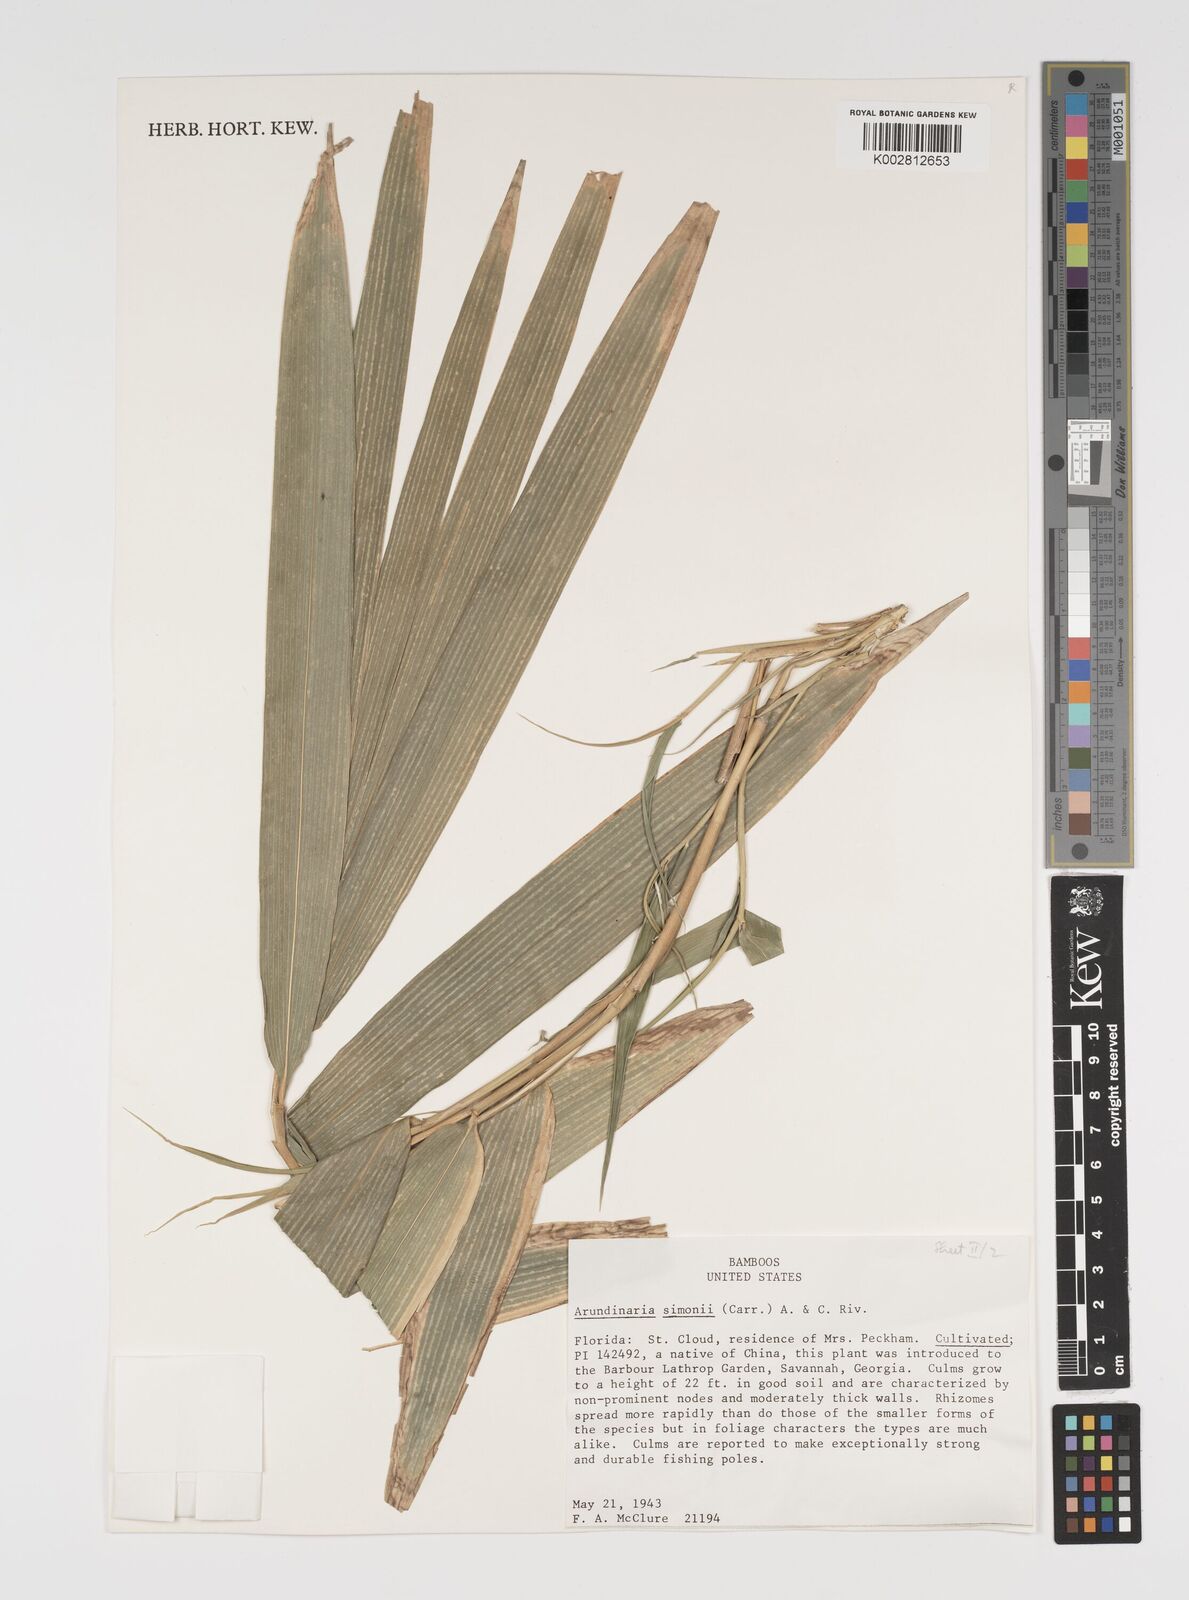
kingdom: Plantae
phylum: Tracheophyta
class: Liliopsida
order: Poales
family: Poaceae
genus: Pleioblastus
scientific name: Pleioblastus simonii
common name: Simon bamboo
